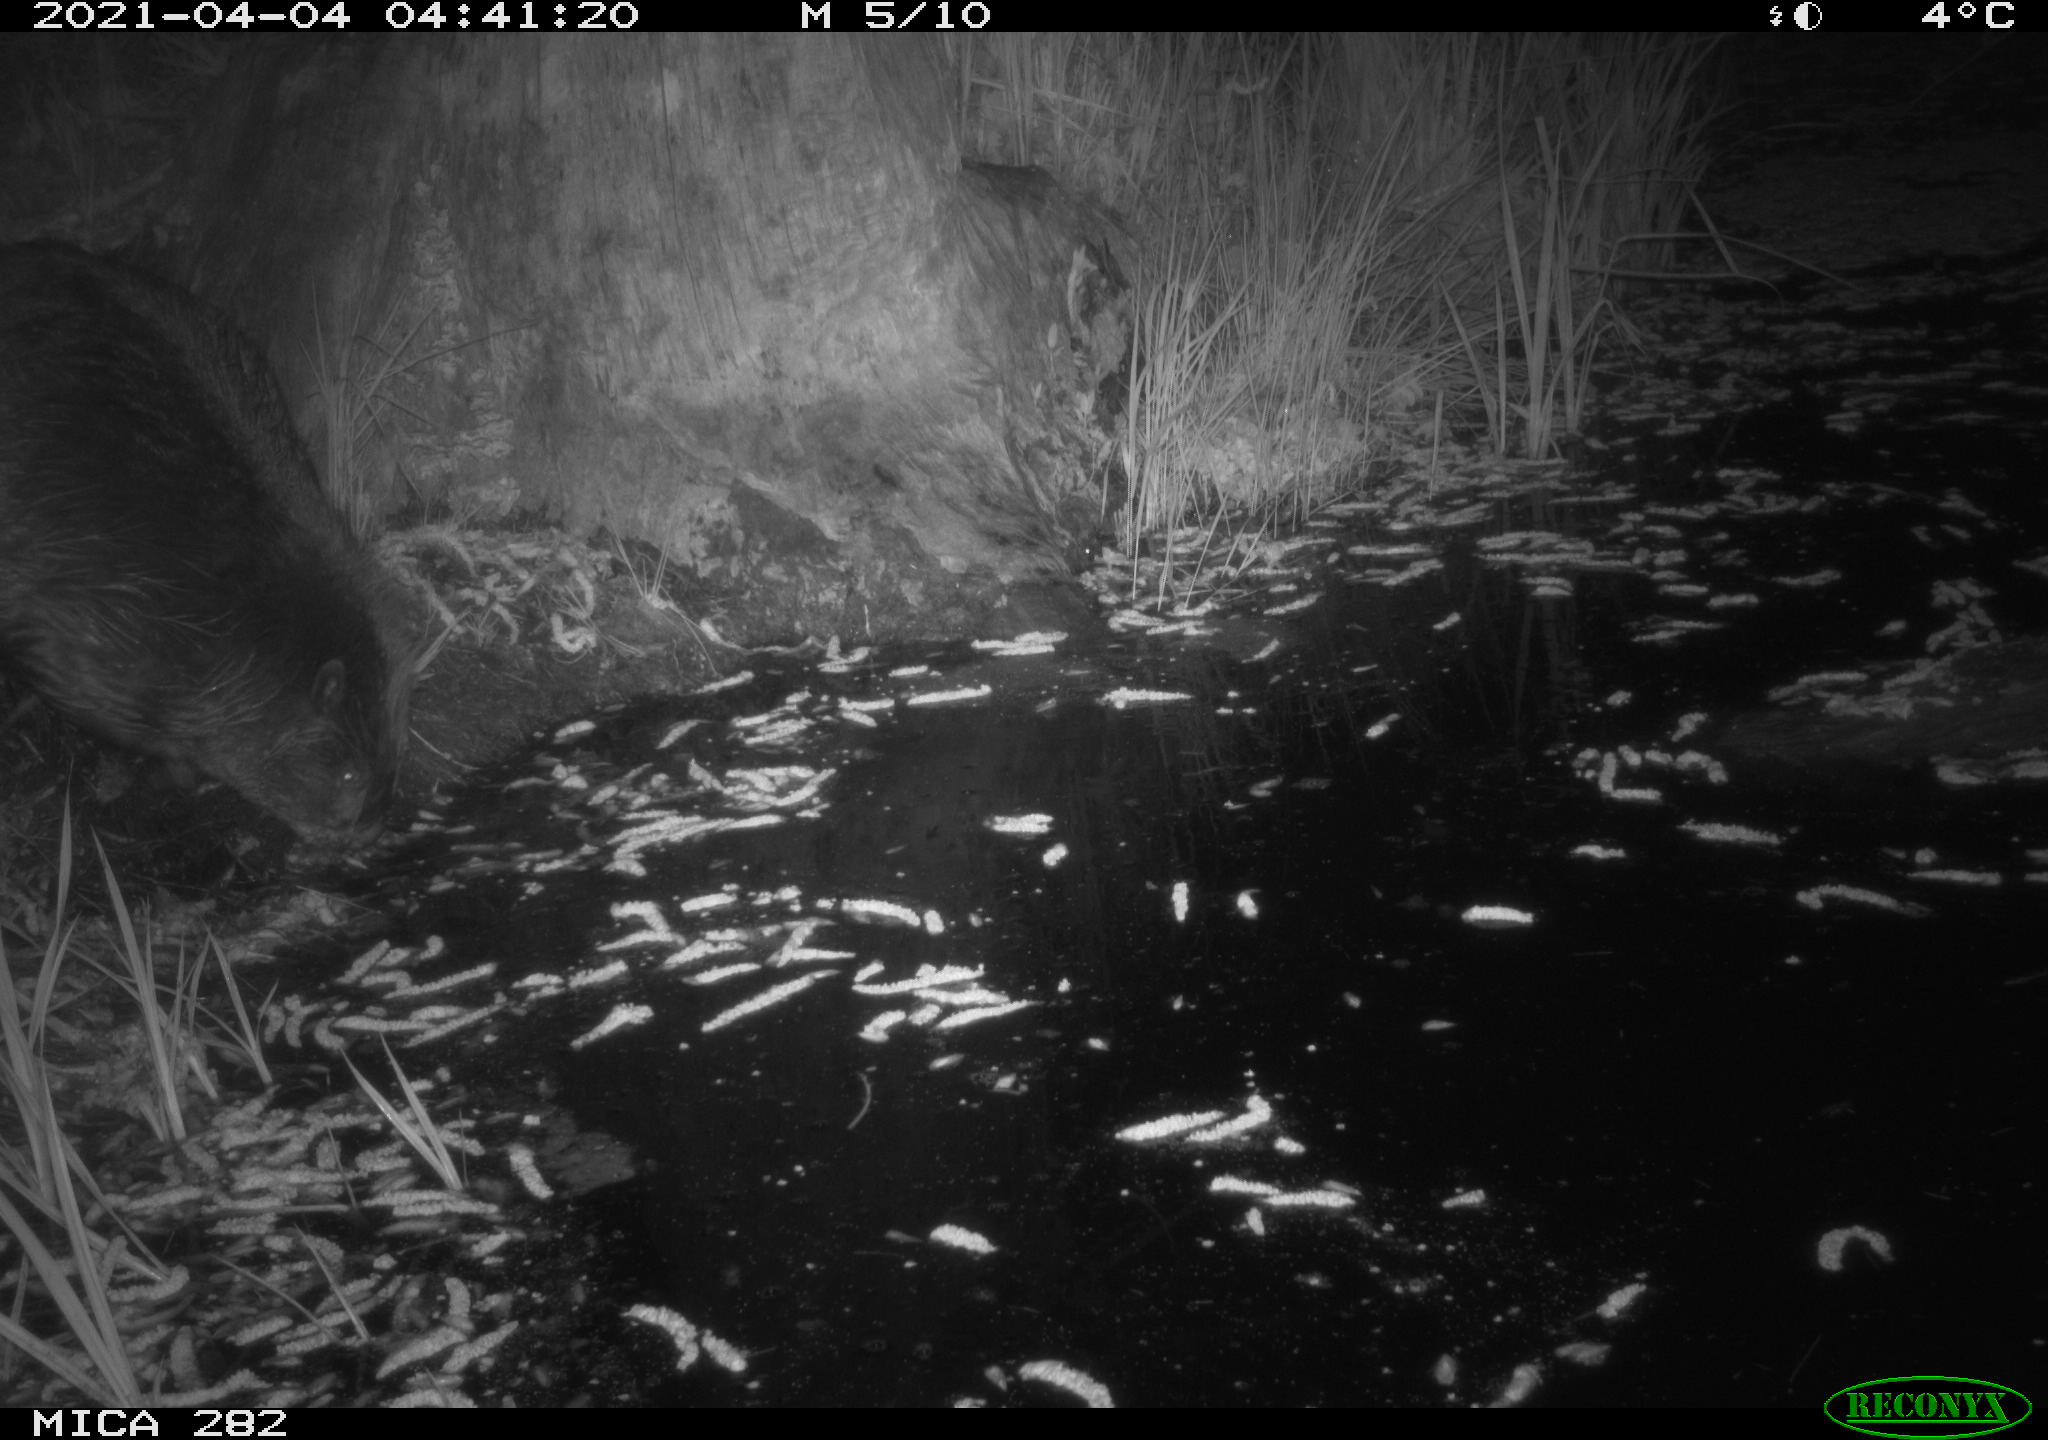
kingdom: Animalia
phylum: Chordata
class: Mammalia
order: Rodentia
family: Castoridae
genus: Castor
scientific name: Castor fiber
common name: Eurasian beaver
